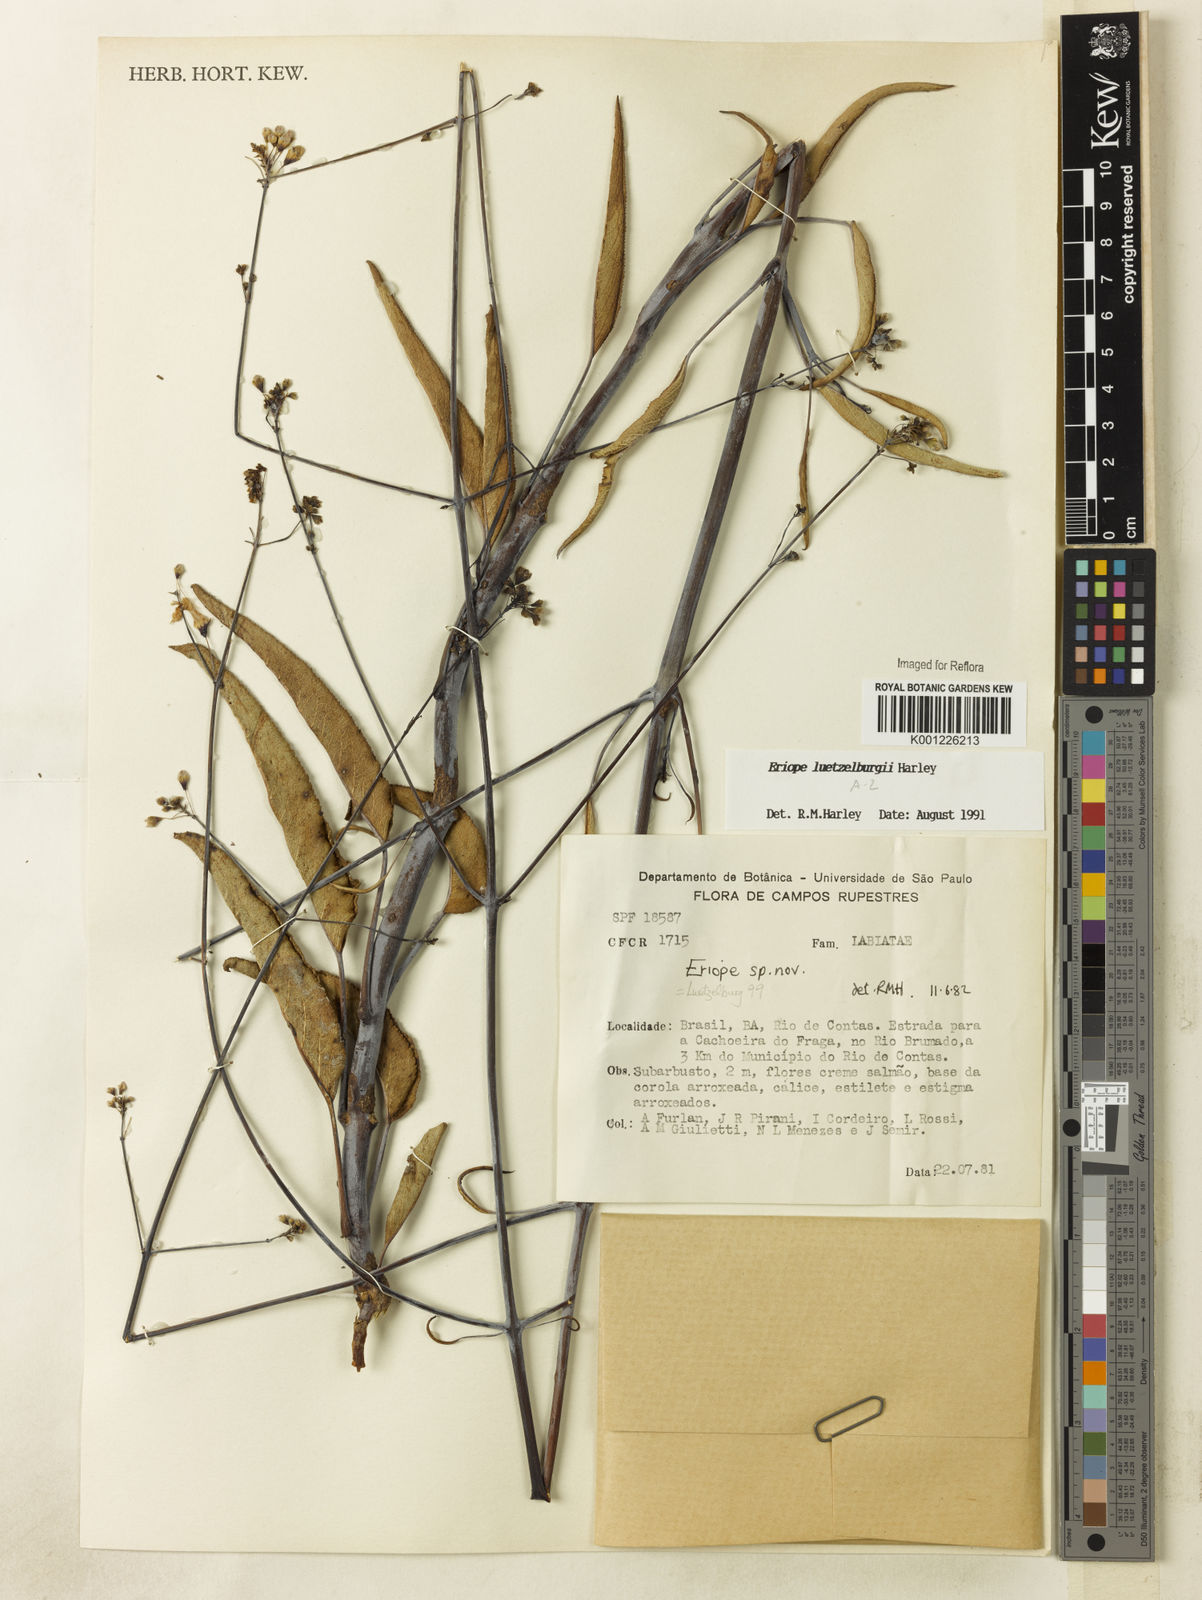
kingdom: Plantae
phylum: Tracheophyta
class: Magnoliopsida
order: Lamiales
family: Lamiaceae
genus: Eriope
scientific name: Eriope luetzelburgii
